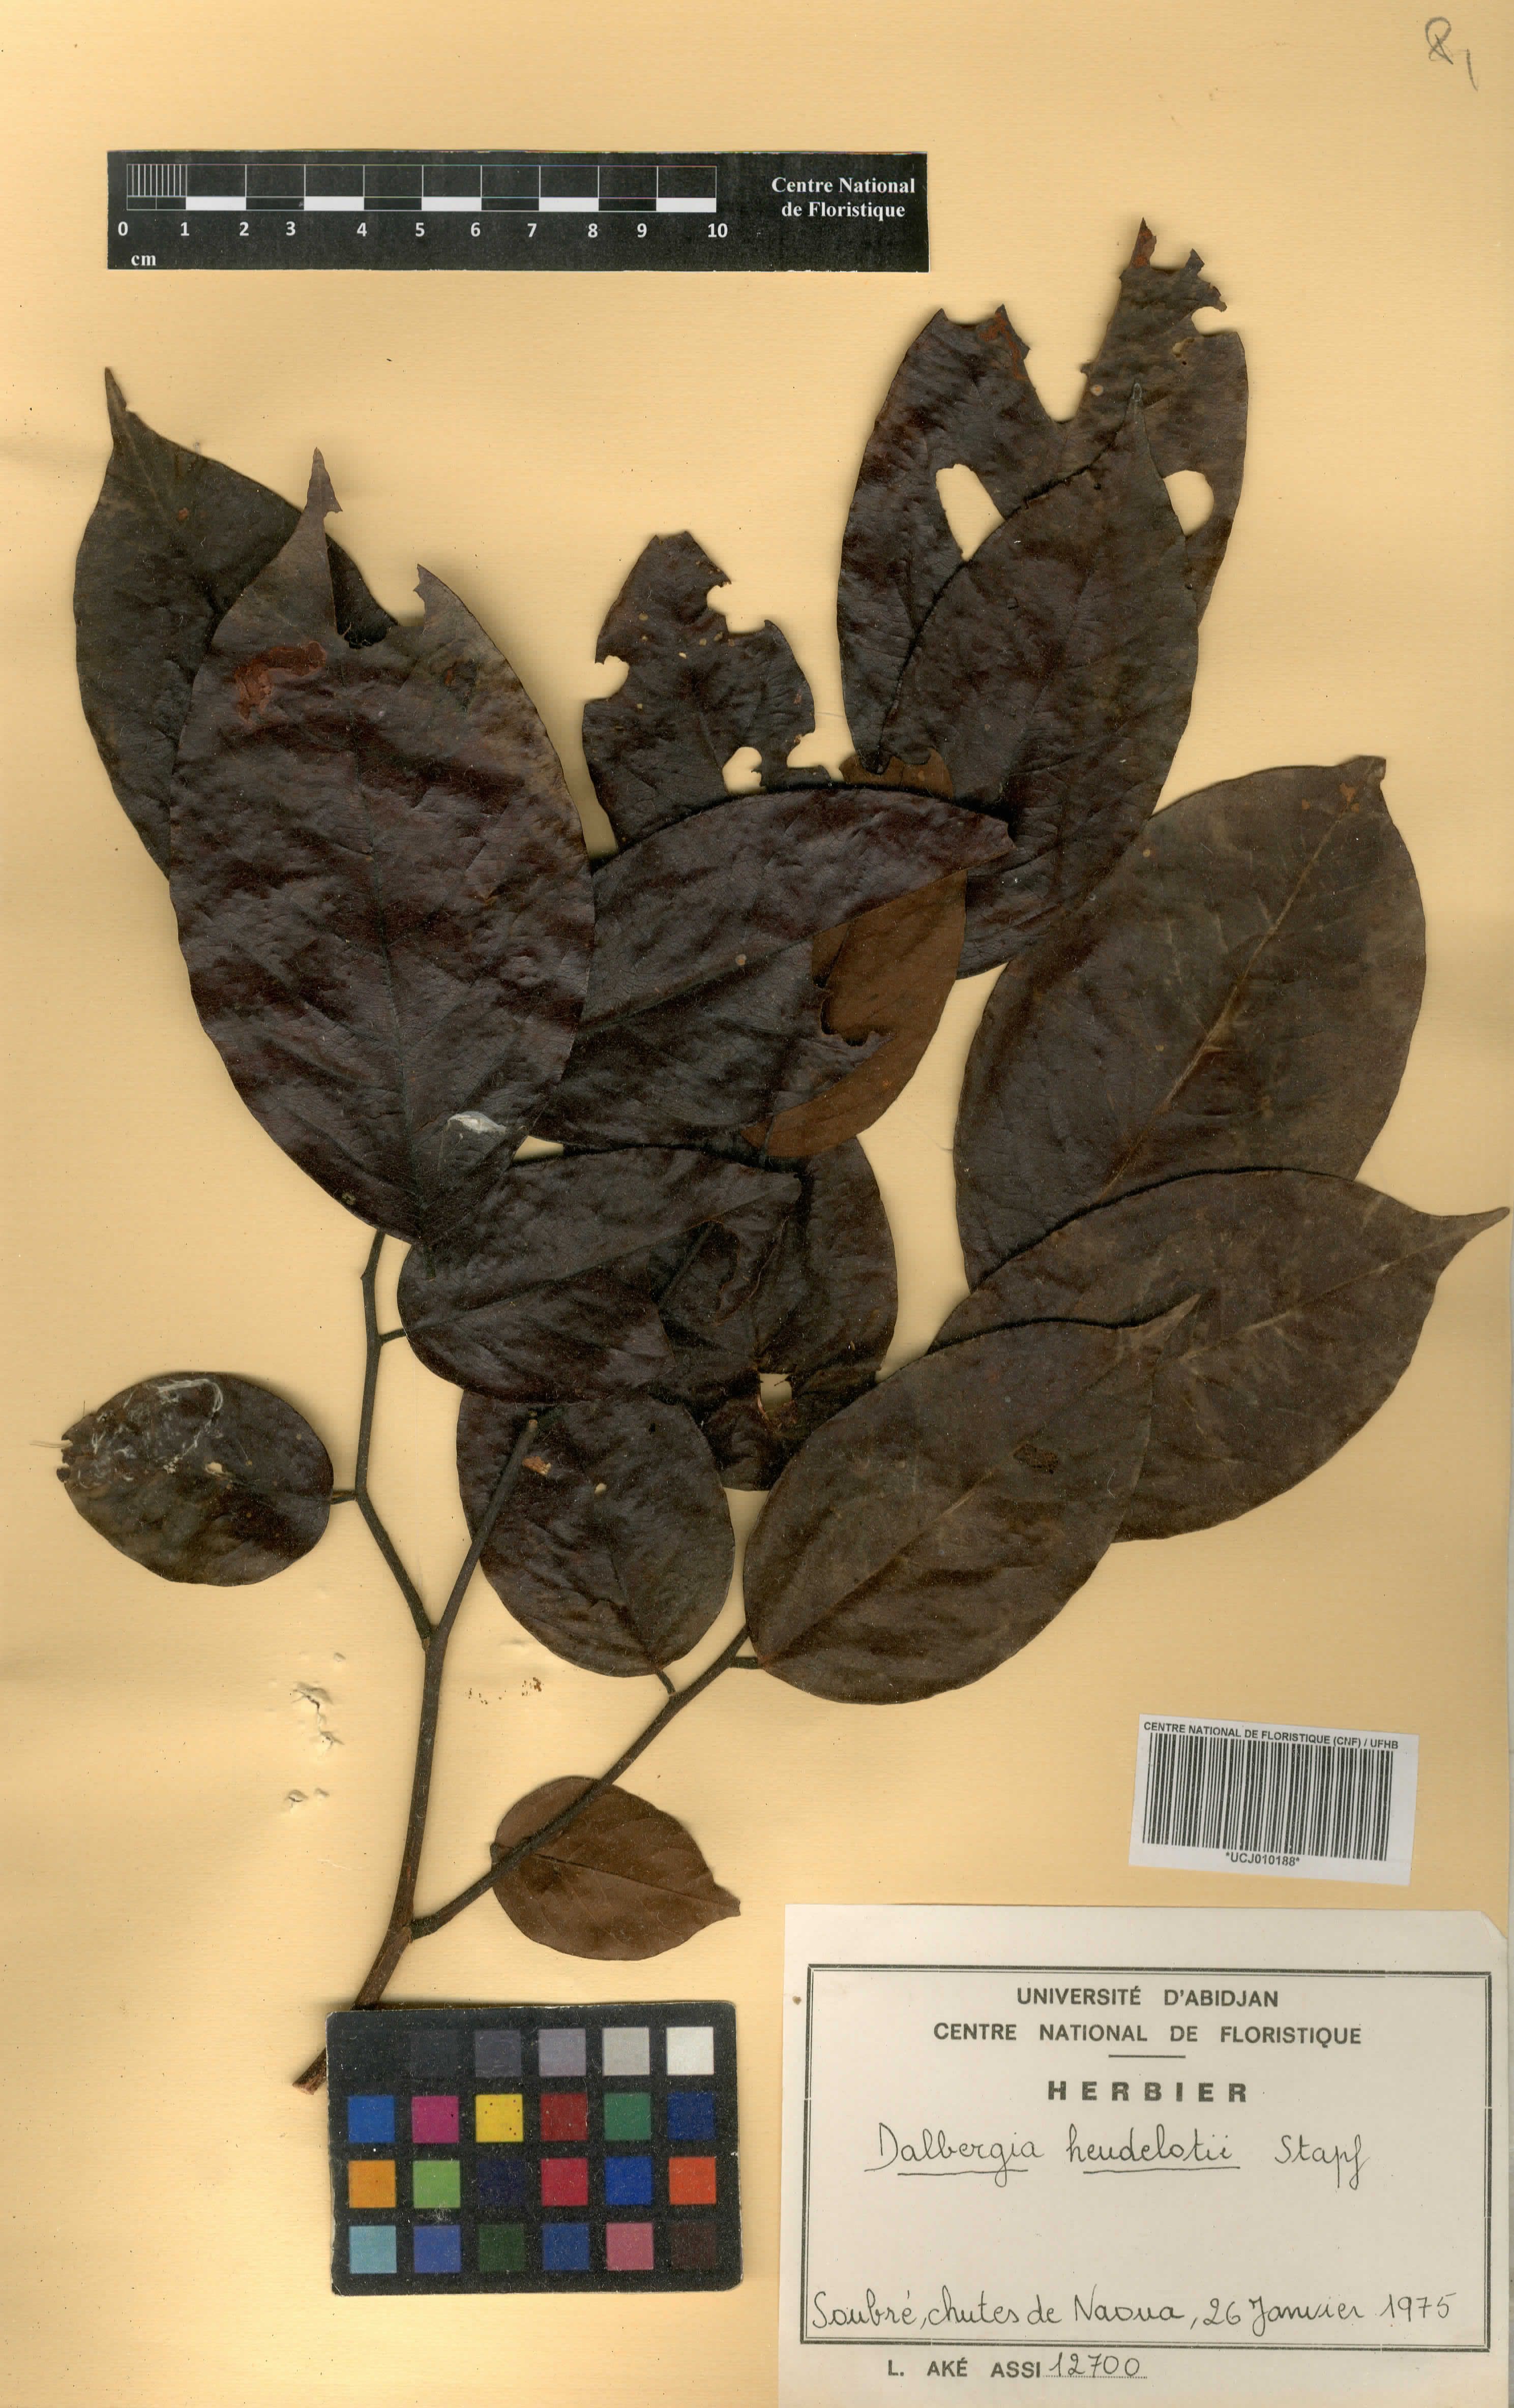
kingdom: Plantae
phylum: Tracheophyta
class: Magnoliopsida
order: Fabales
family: Fabaceae
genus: Dalbergia
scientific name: Dalbergia heudelotii
